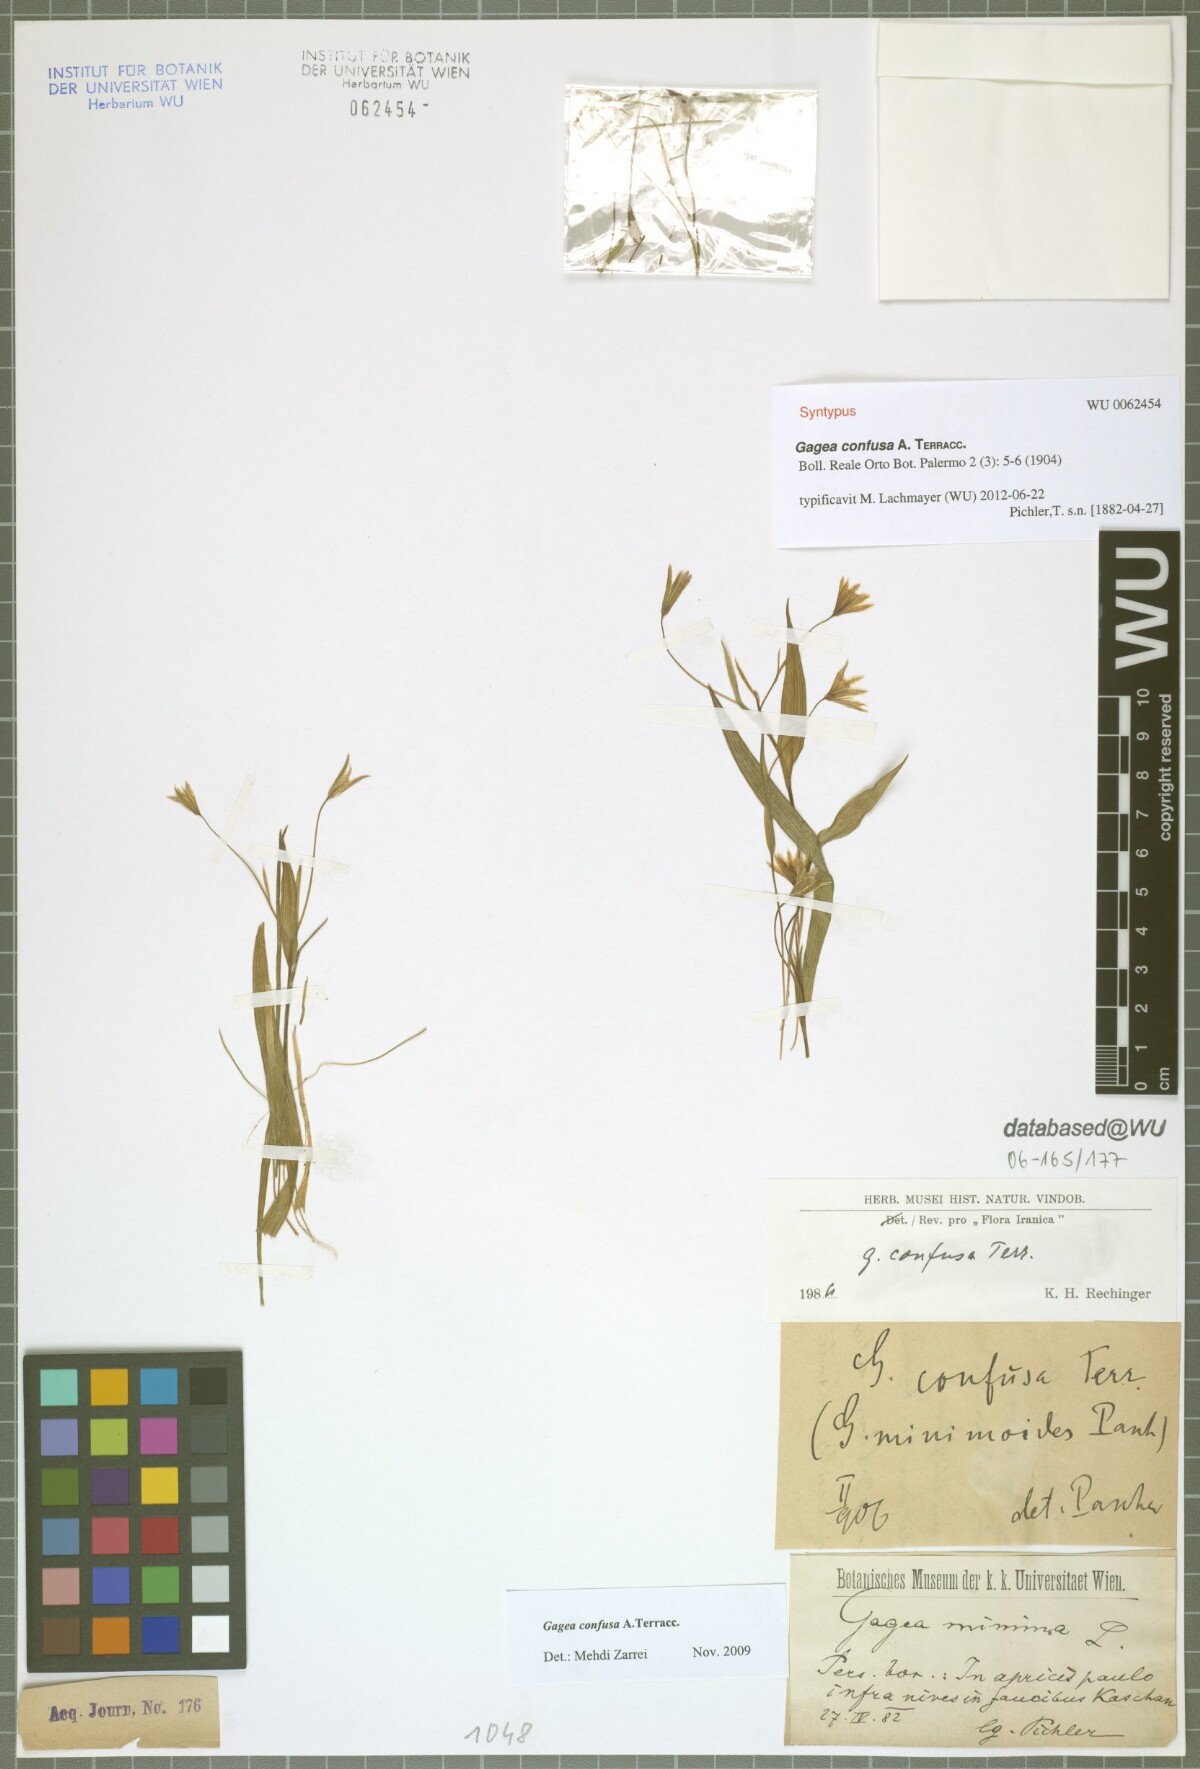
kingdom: Plantae
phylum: Tracheophyta
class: Liliopsida
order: Liliales
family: Liliaceae
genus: Gagea
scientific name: Gagea confusa
